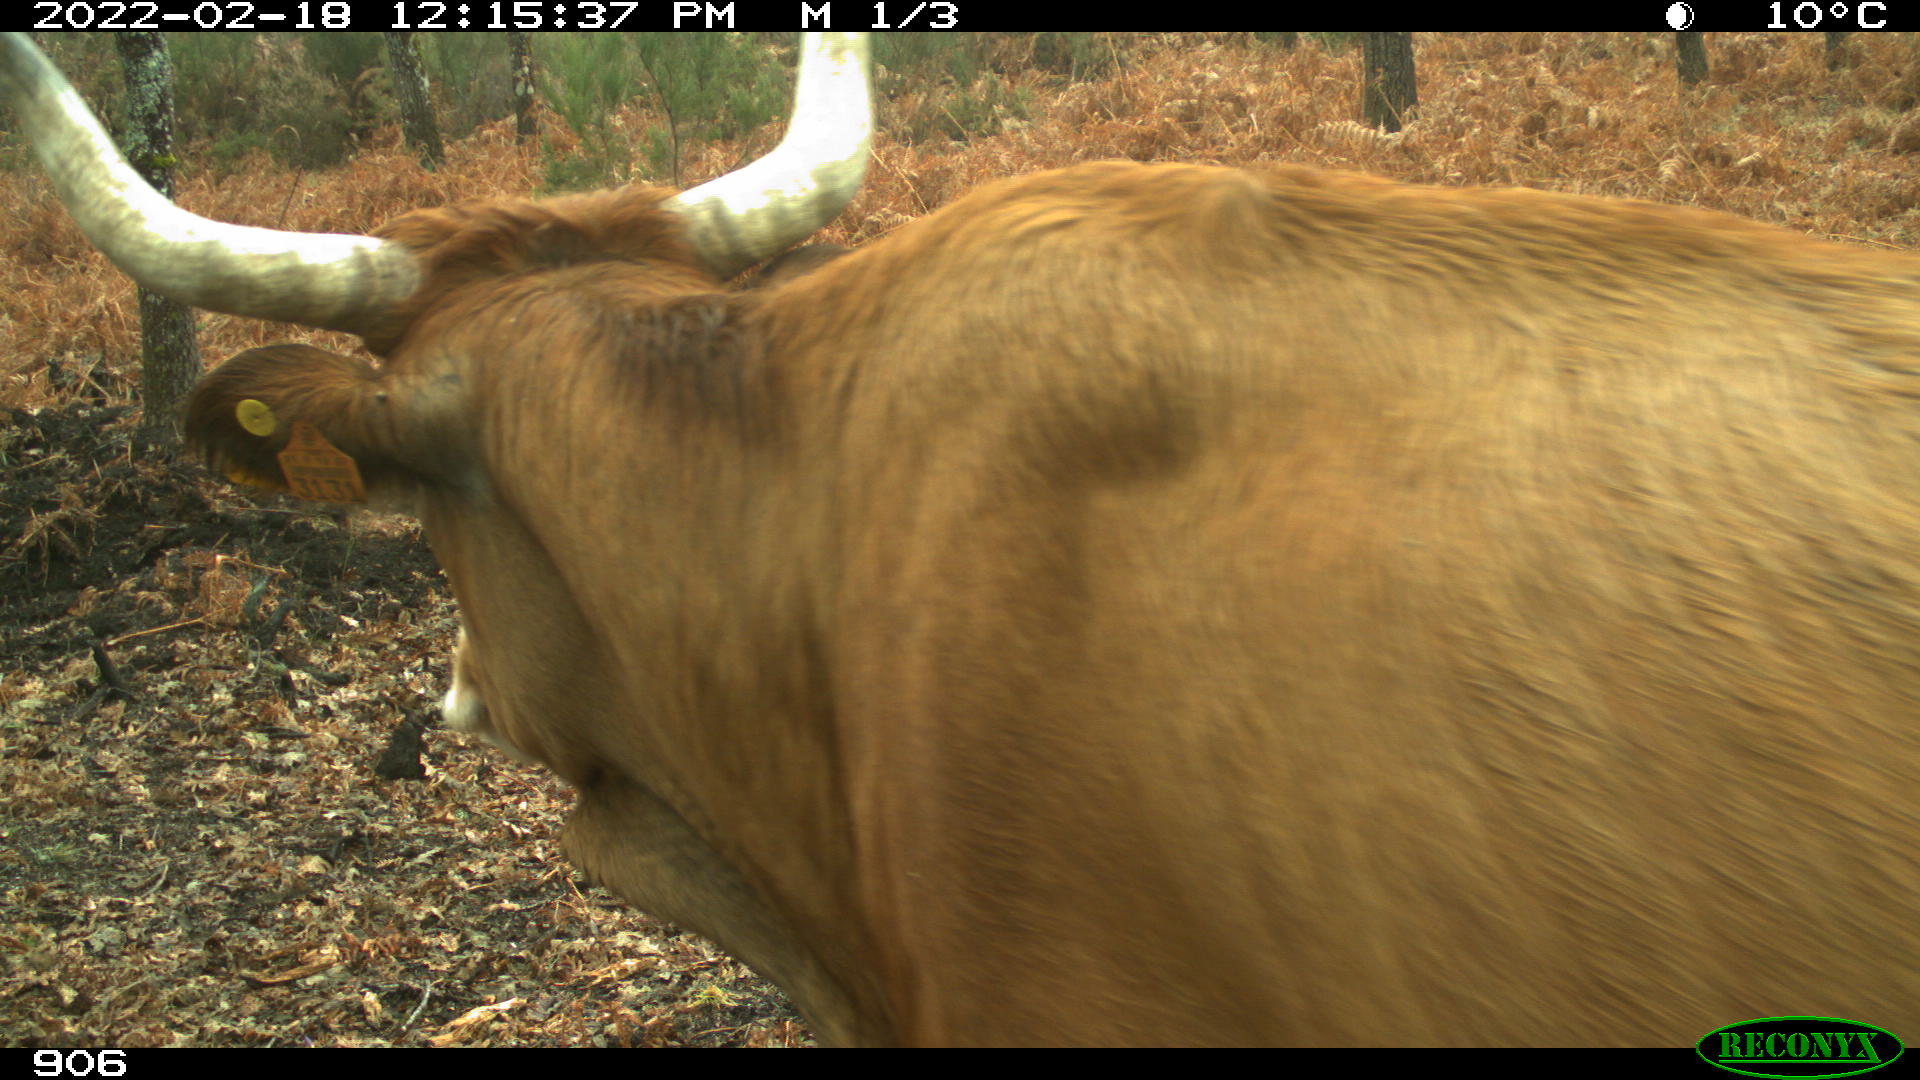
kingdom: Animalia
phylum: Chordata
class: Mammalia
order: Artiodactyla
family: Bovidae
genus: Bos
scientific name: Bos taurus
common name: Domesticated cattle
